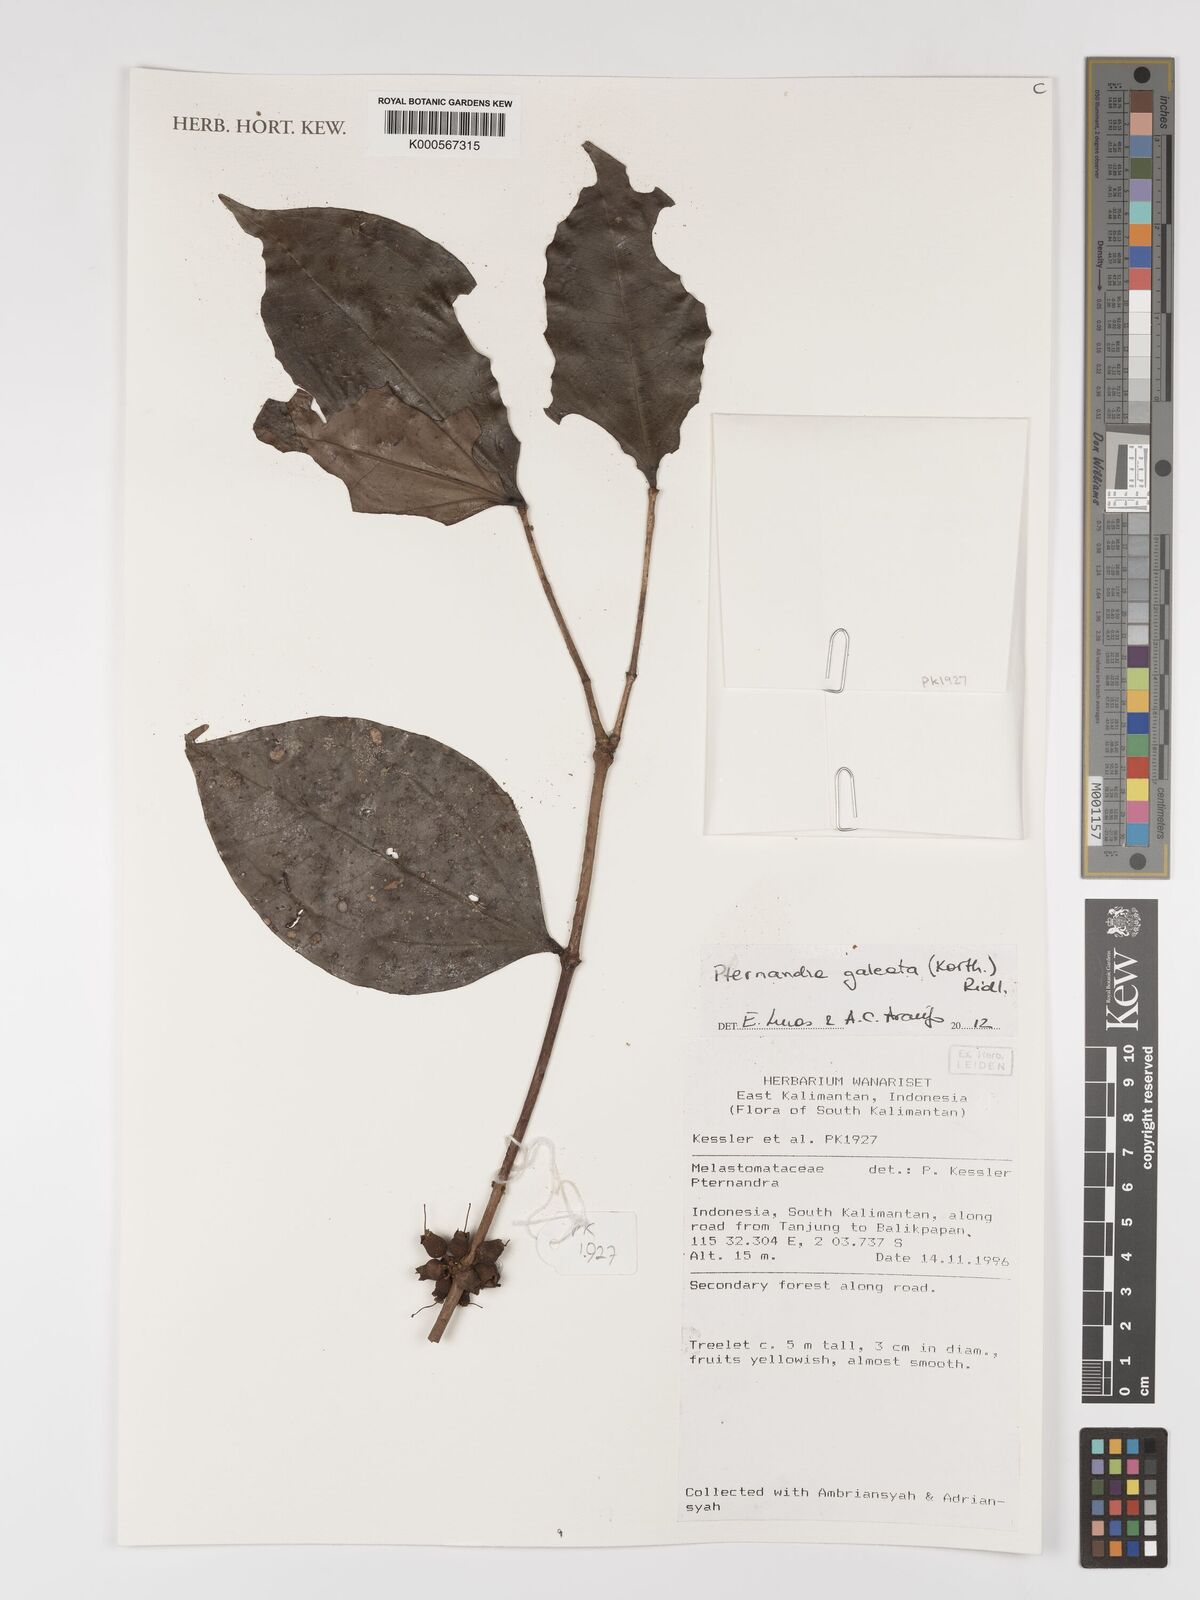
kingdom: Plantae
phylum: Tracheophyta
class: Magnoliopsida
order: Myrtales
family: Melastomataceae
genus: Pternandra
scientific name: Pternandra galeata
